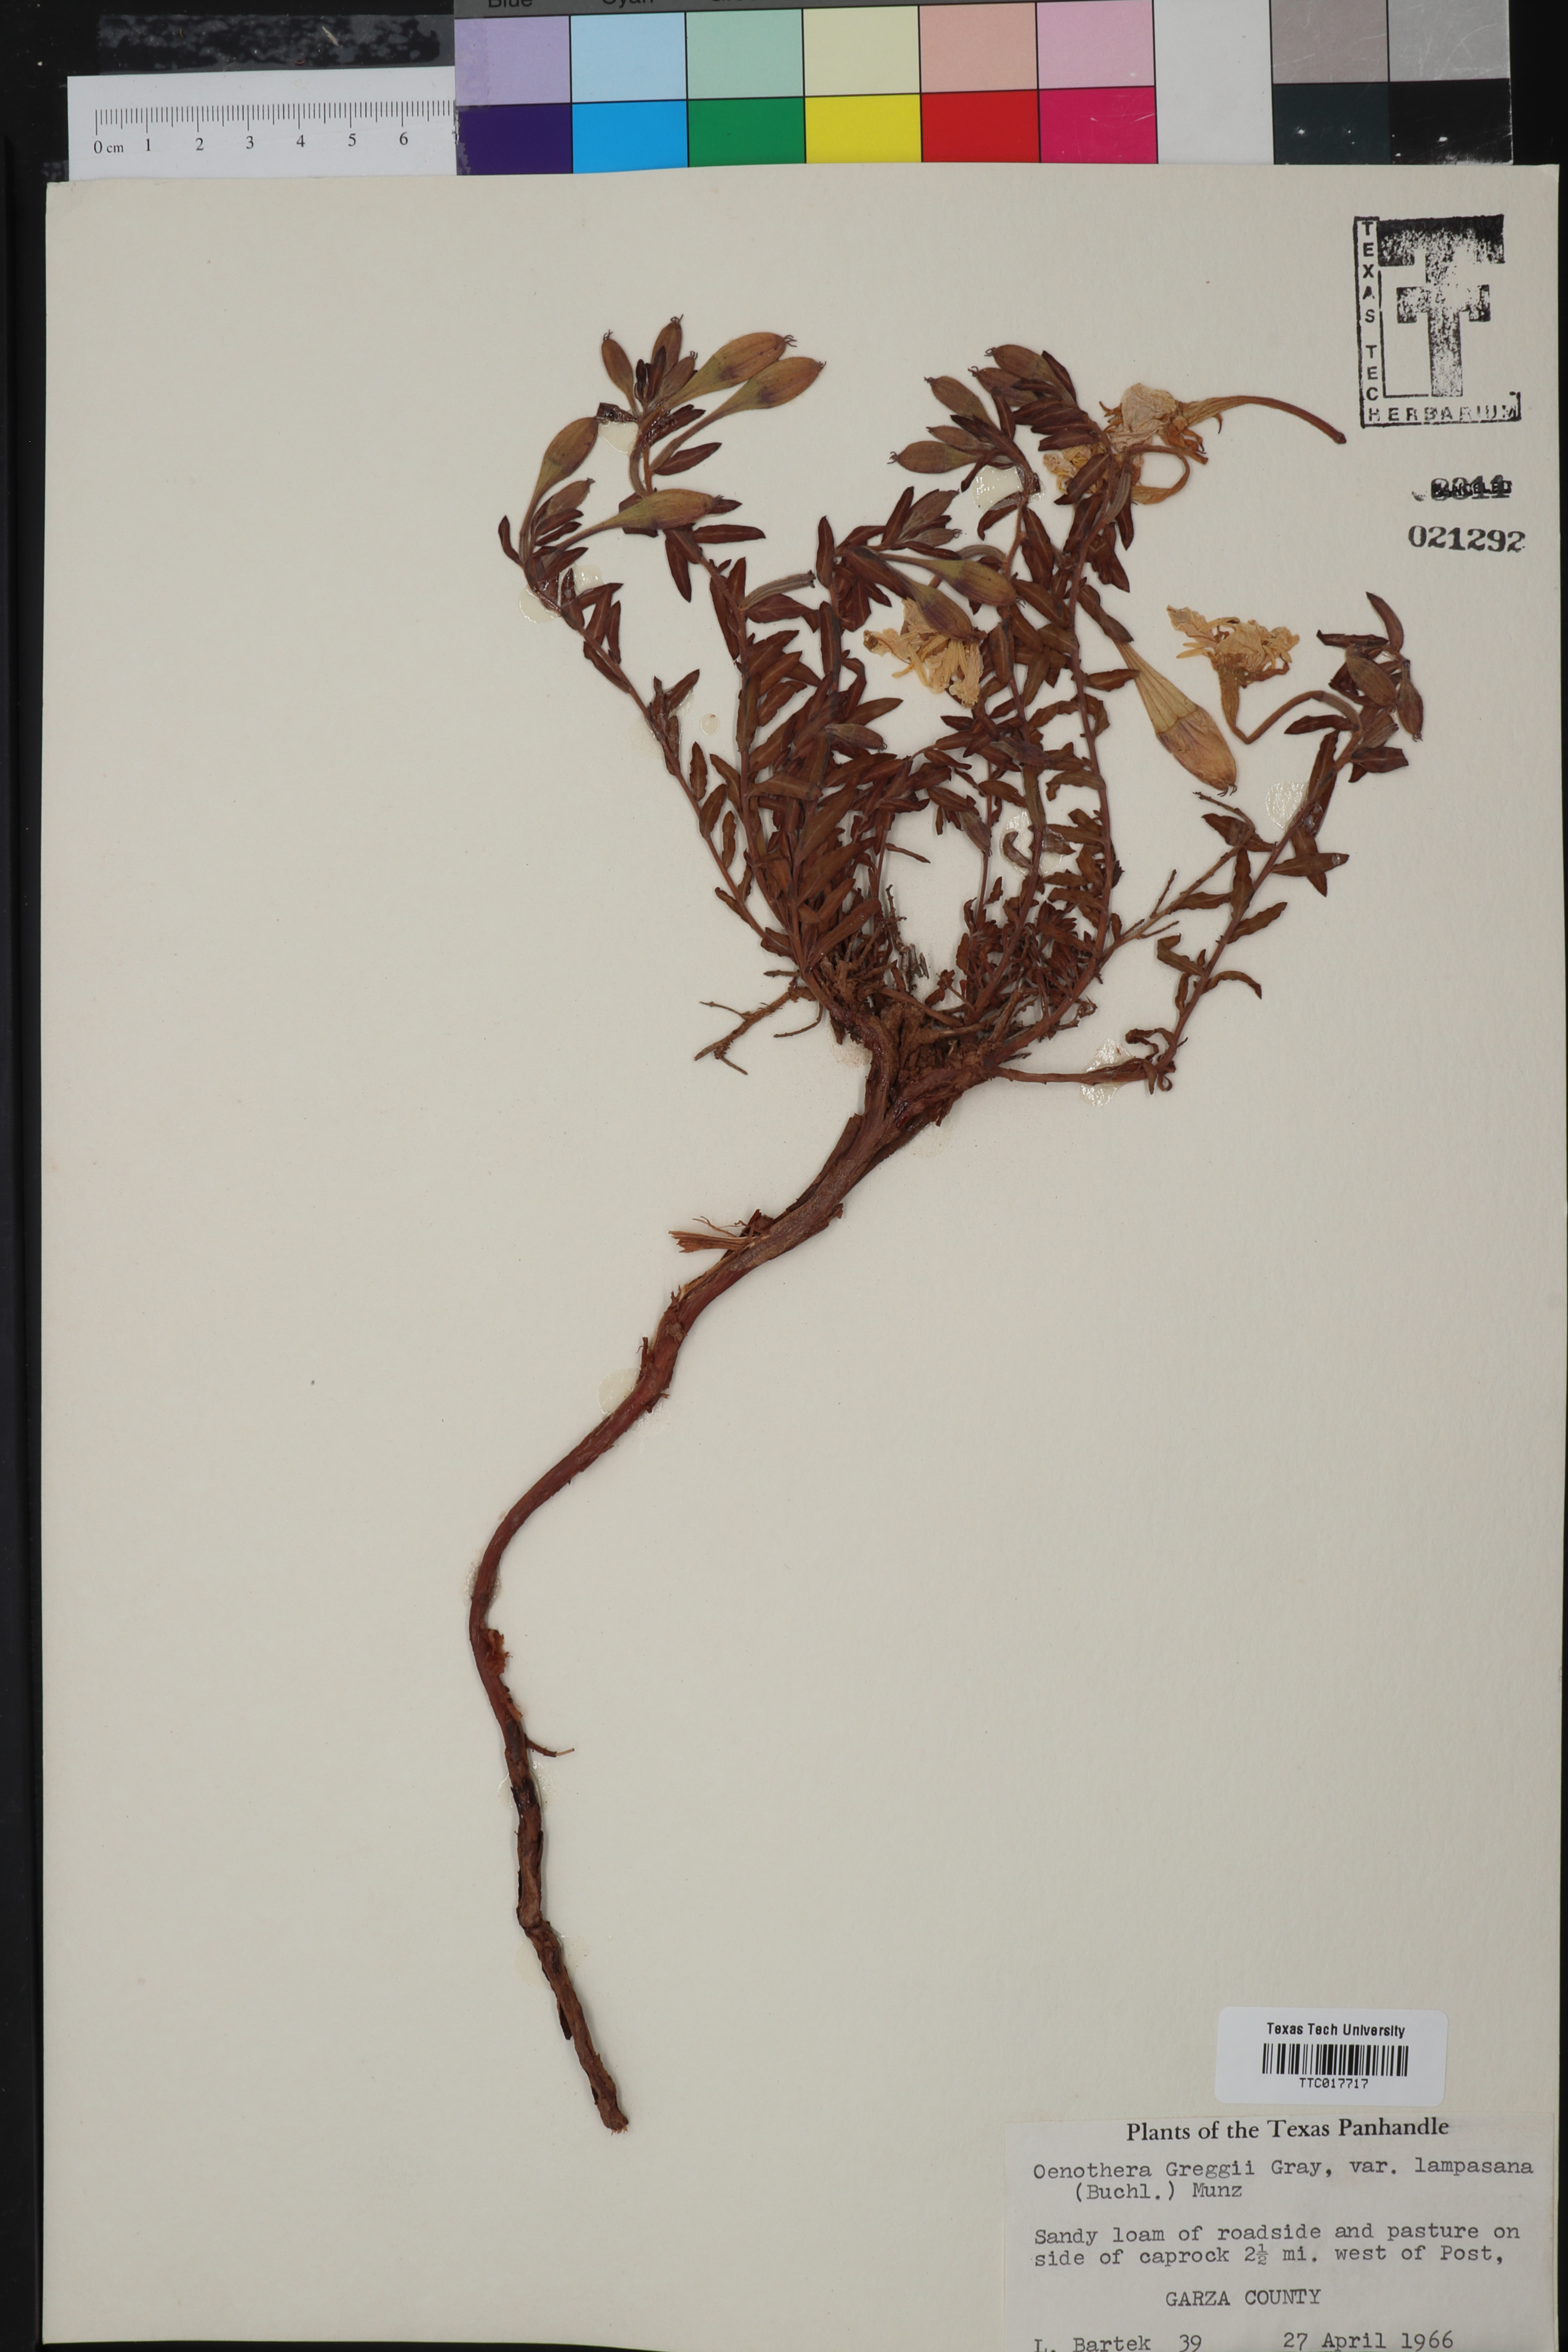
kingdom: Plantae
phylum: Tracheophyta
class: Magnoliopsida
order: Myrtales
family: Onagraceae
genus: Oenothera
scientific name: Oenothera hartwegii
